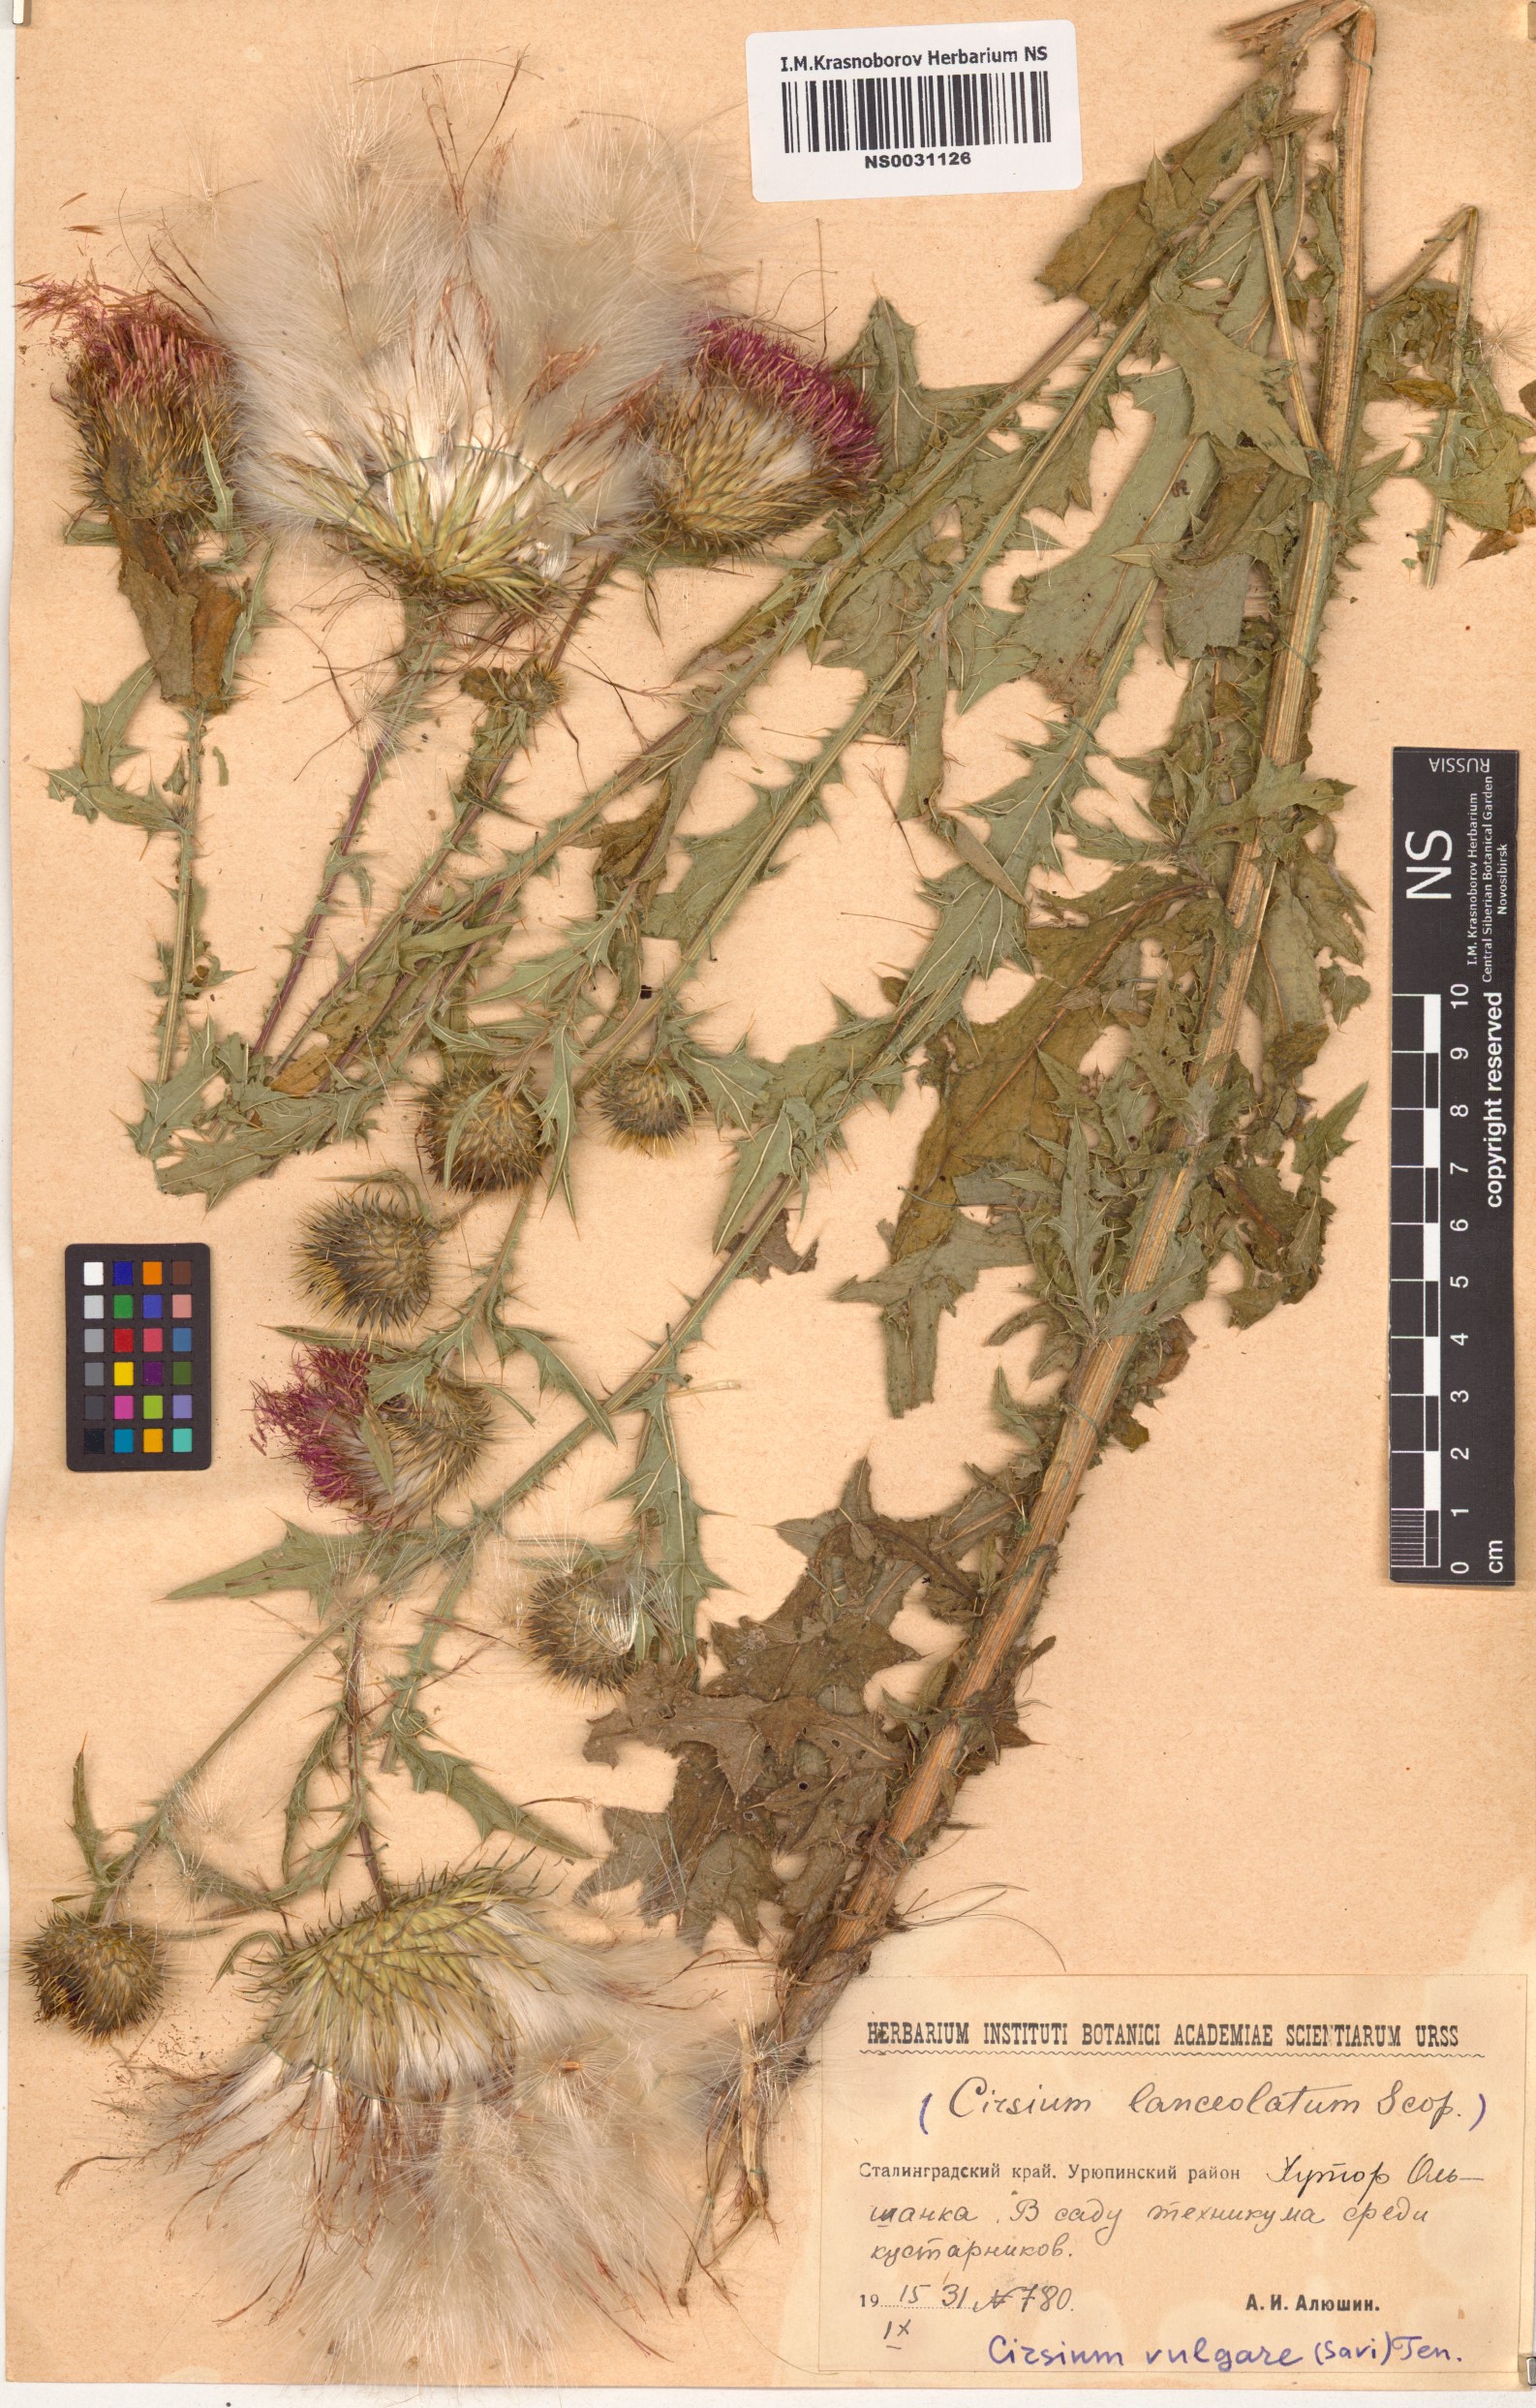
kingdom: Plantae
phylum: Tracheophyta
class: Magnoliopsida
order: Asterales
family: Asteraceae
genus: Cirsium
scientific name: Cirsium vulgare
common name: Bull thistle
